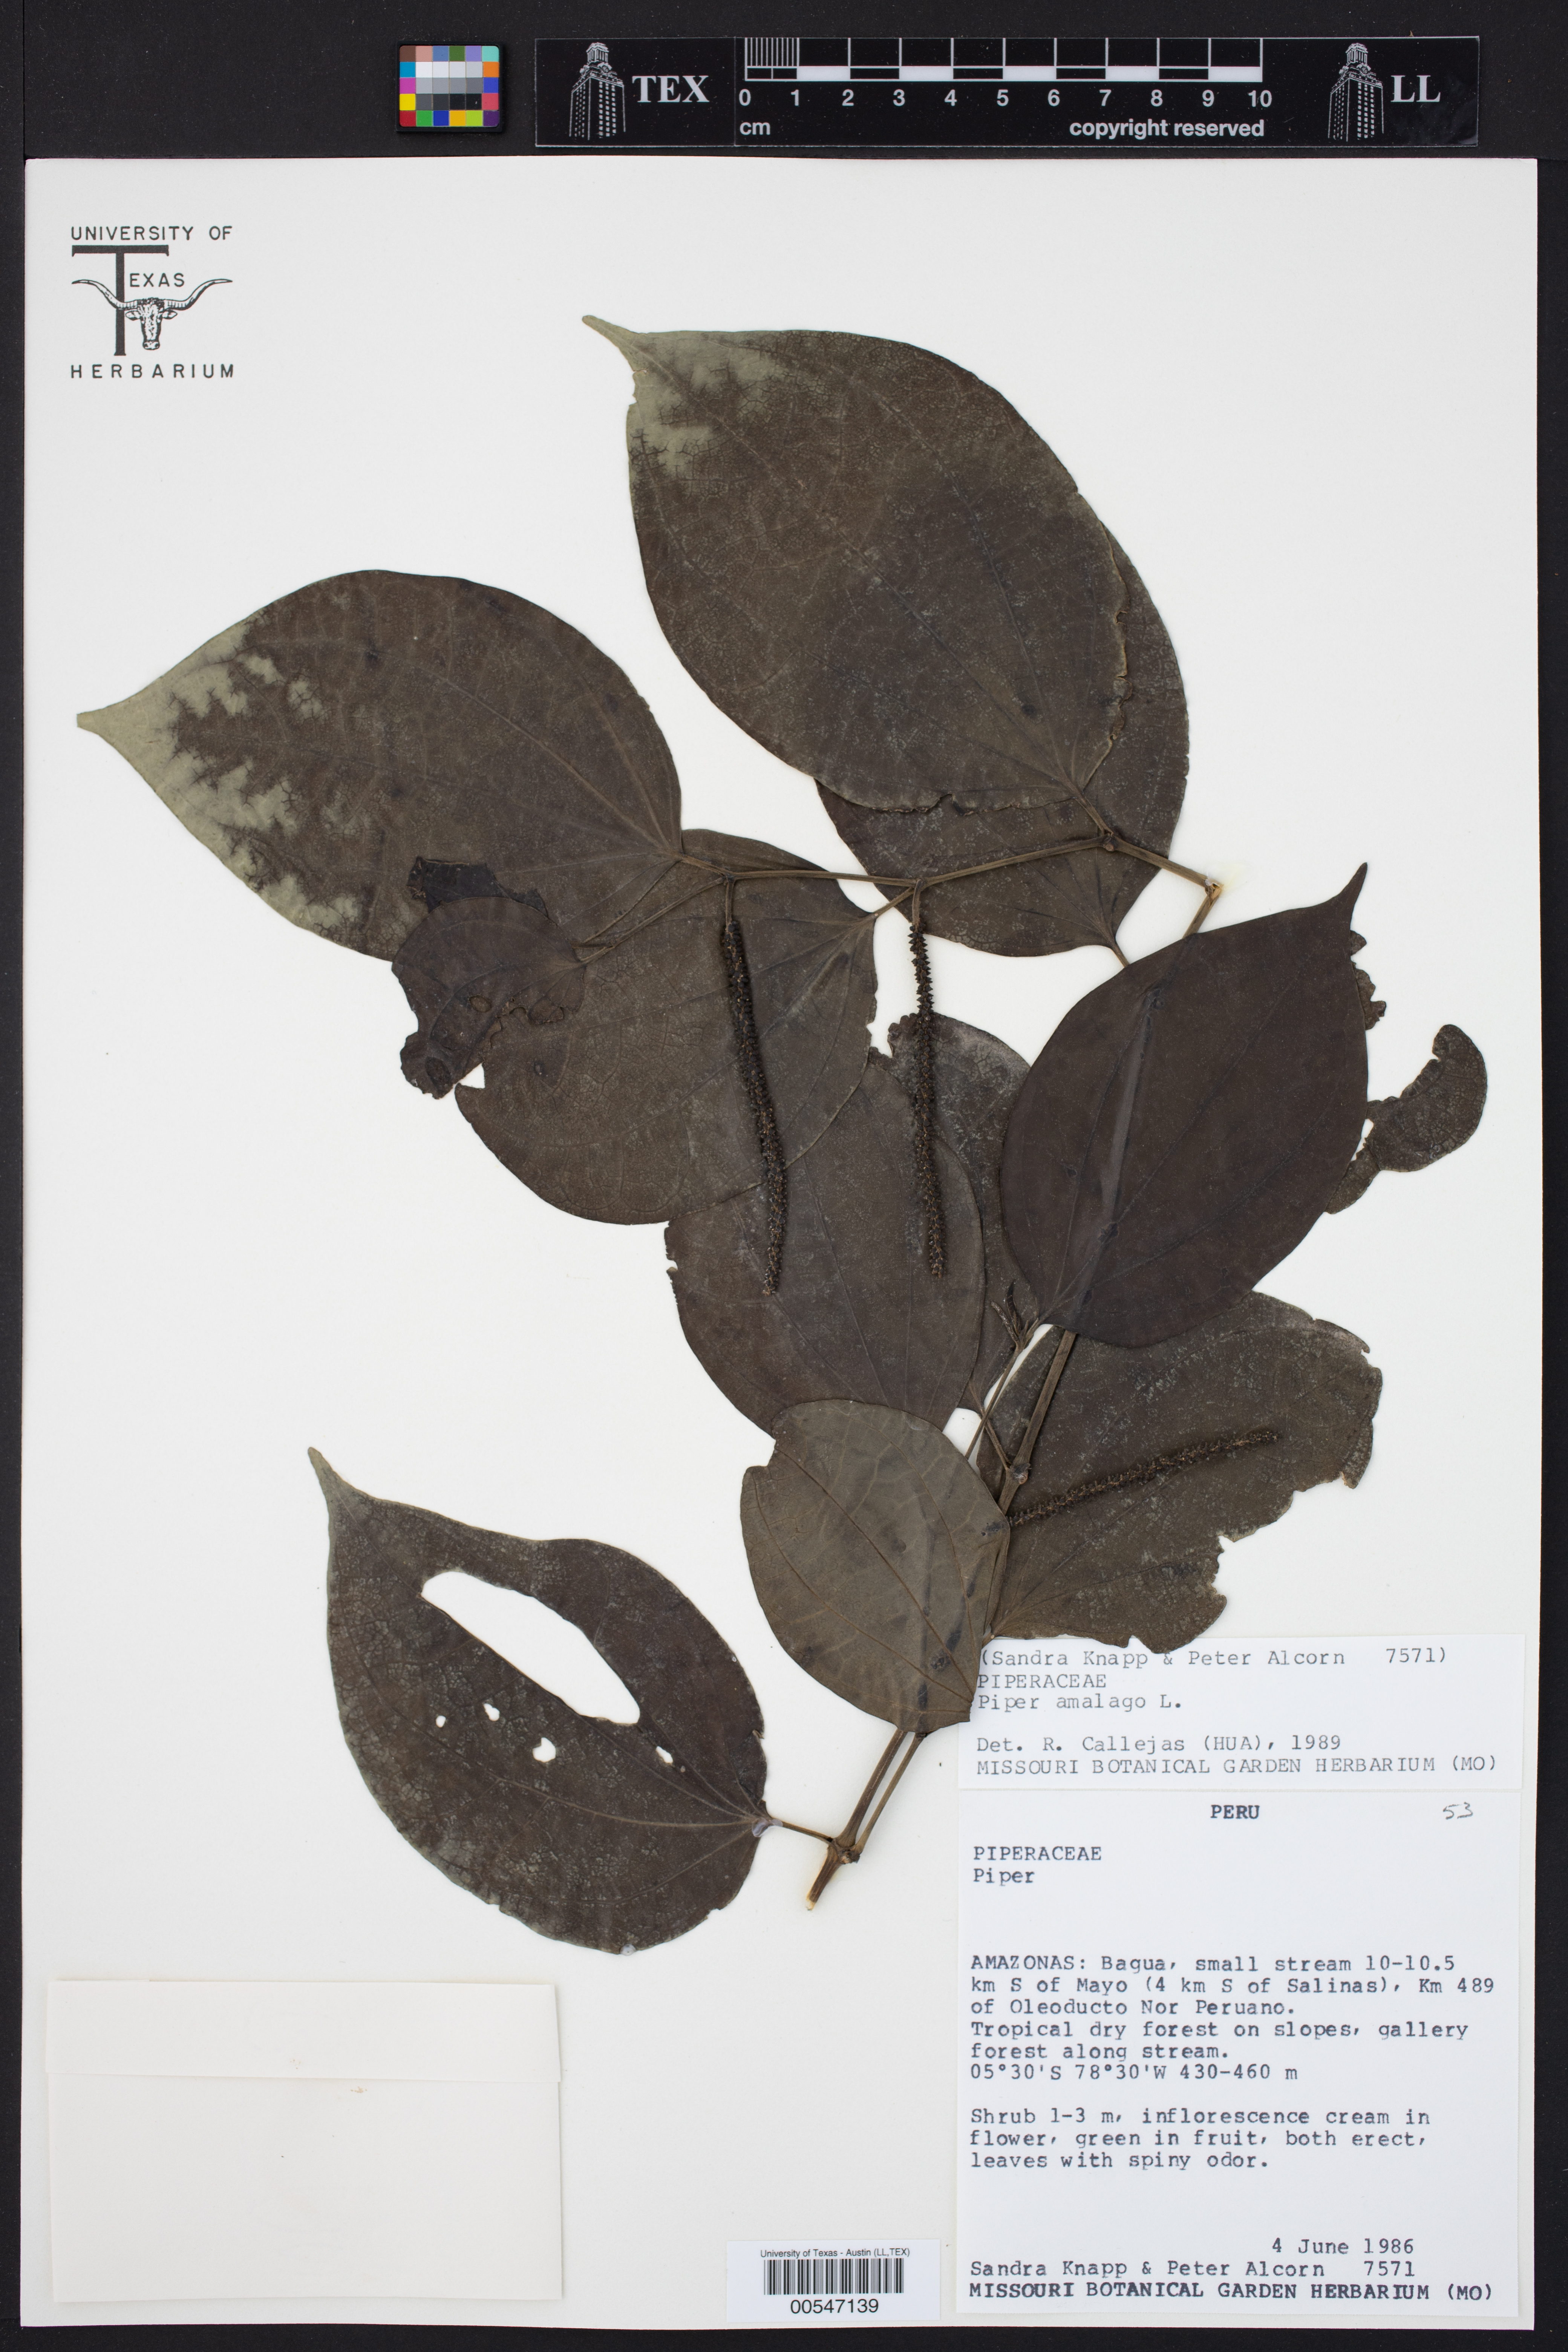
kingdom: Plantae
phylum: Tracheophyta
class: Magnoliopsida
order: Piperales
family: Piperaceae
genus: Piper
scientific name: Piper amalago
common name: Pepper-elder
